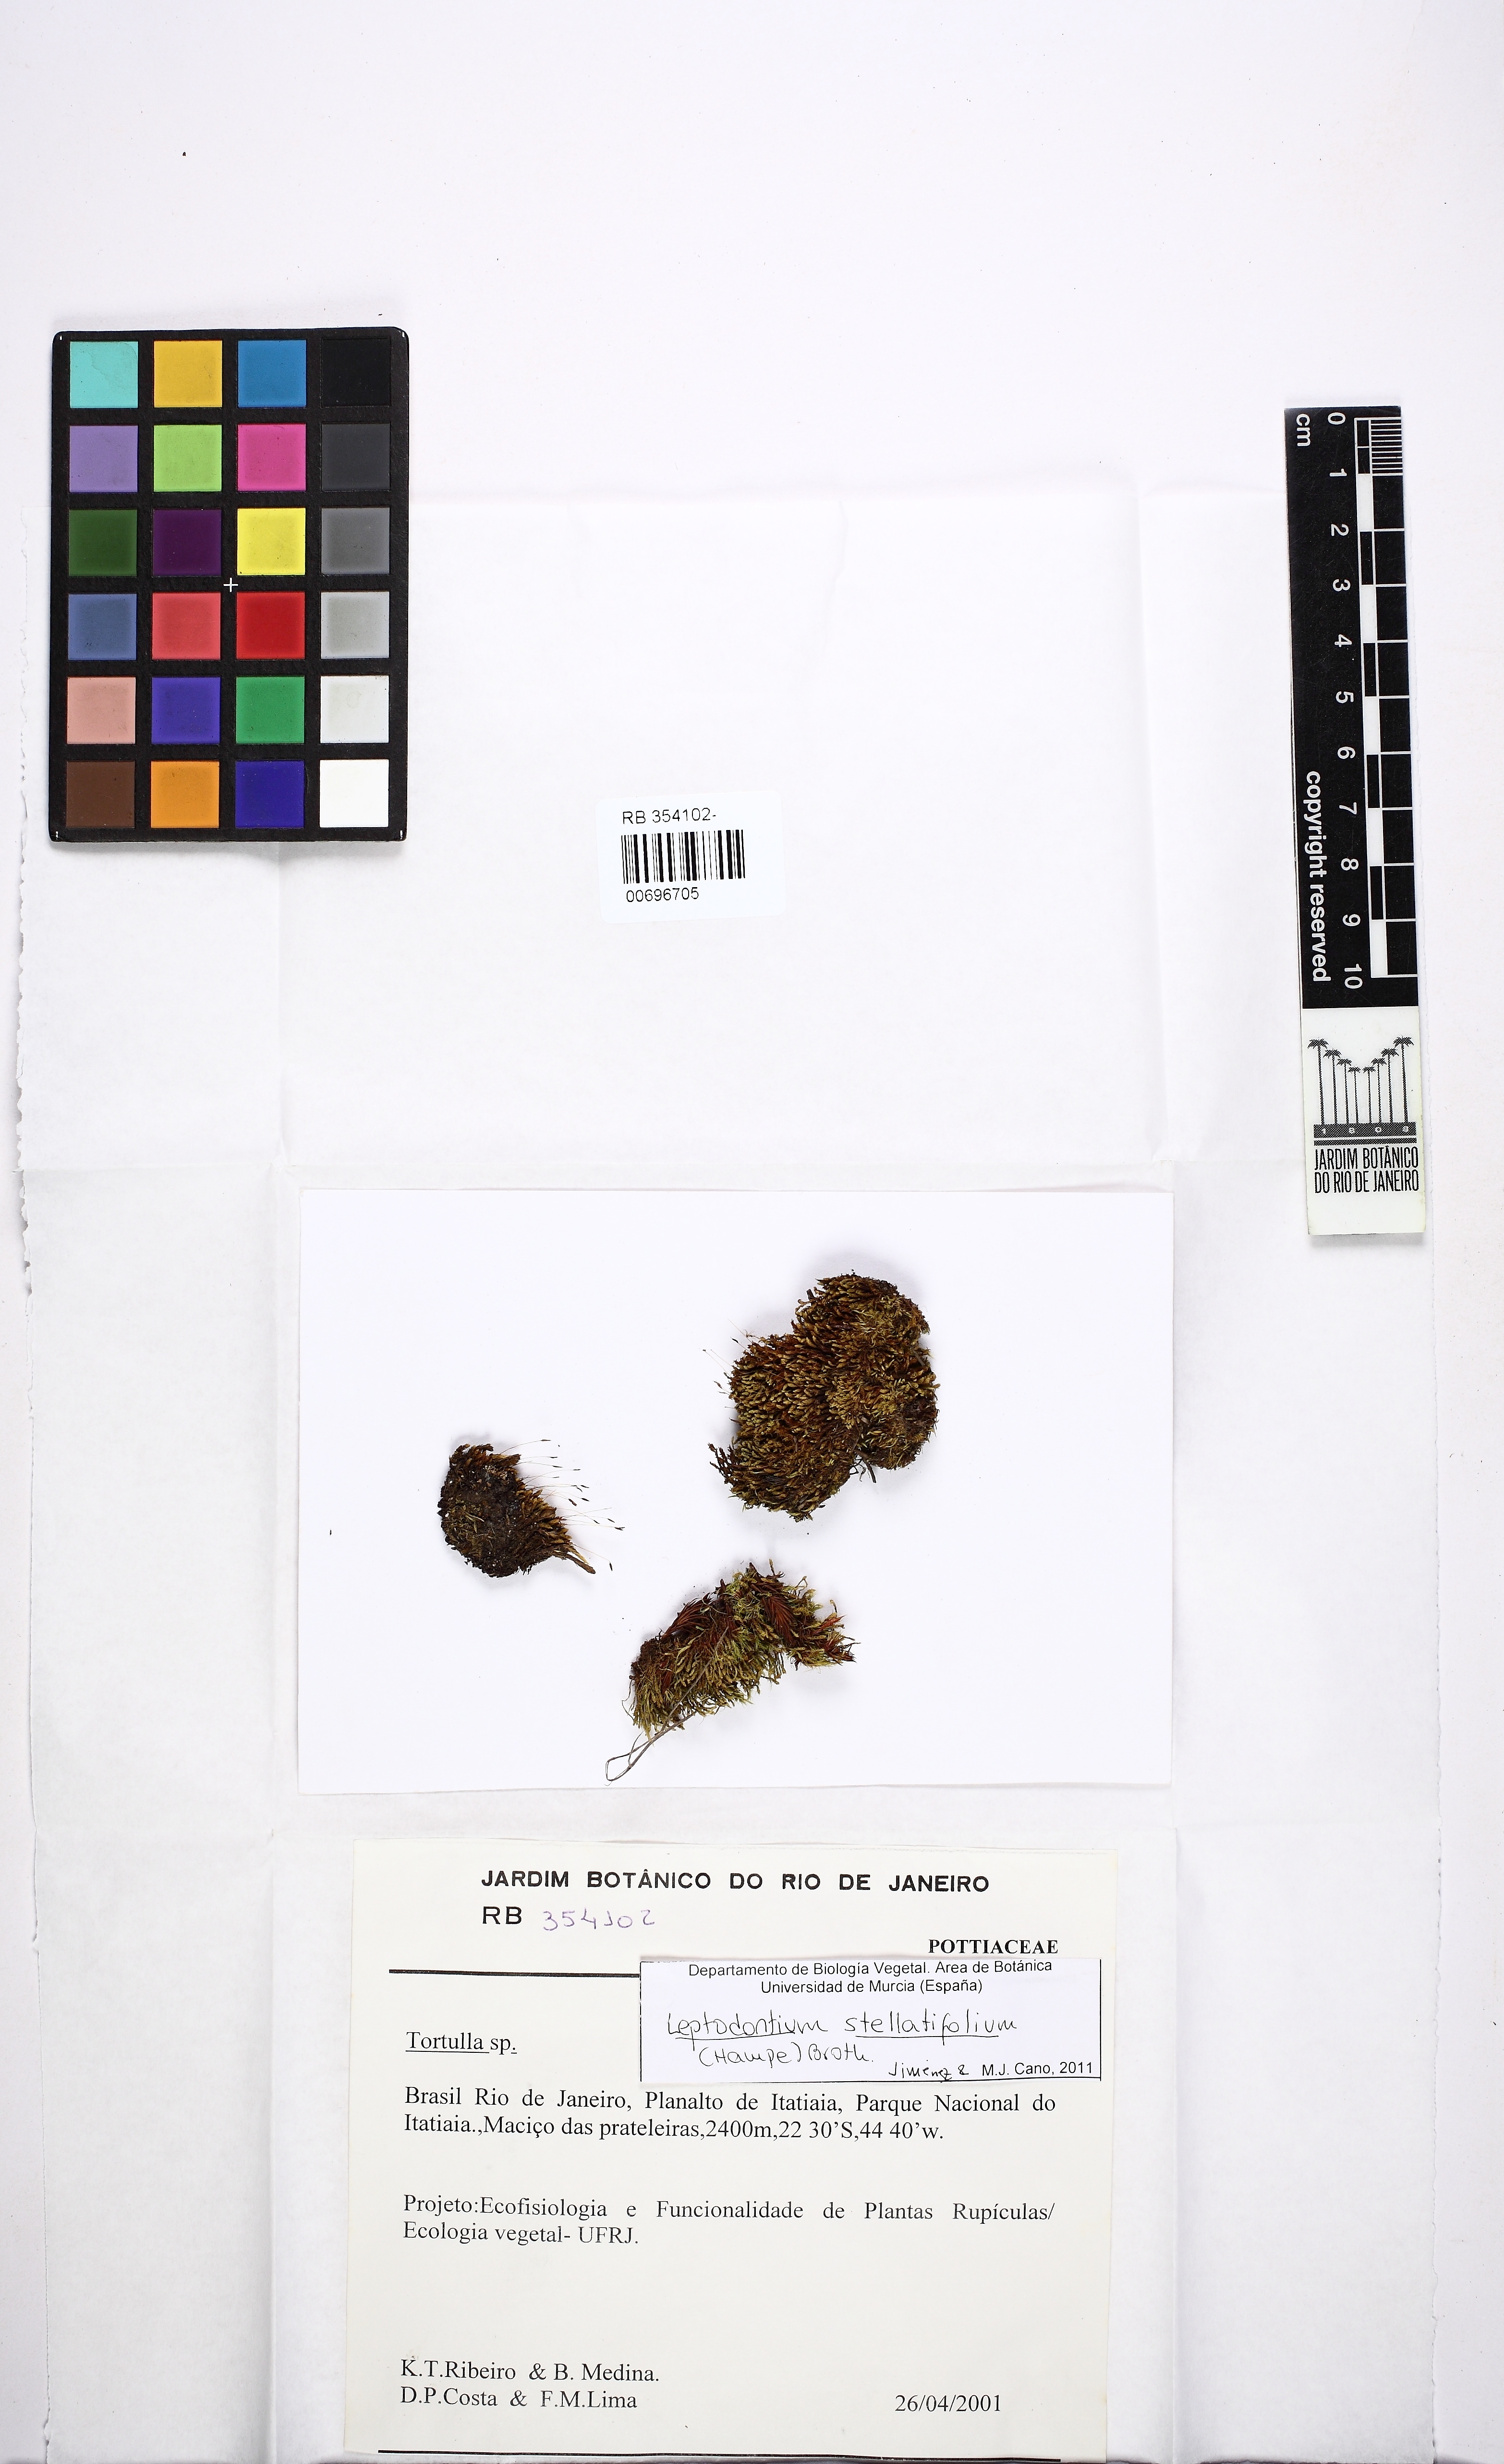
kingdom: Plantae
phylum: Bryophyta
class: Bryopsida
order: Pottiales
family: Pottiaceae
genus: Leptodontium
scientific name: Leptodontium stellatifolium
